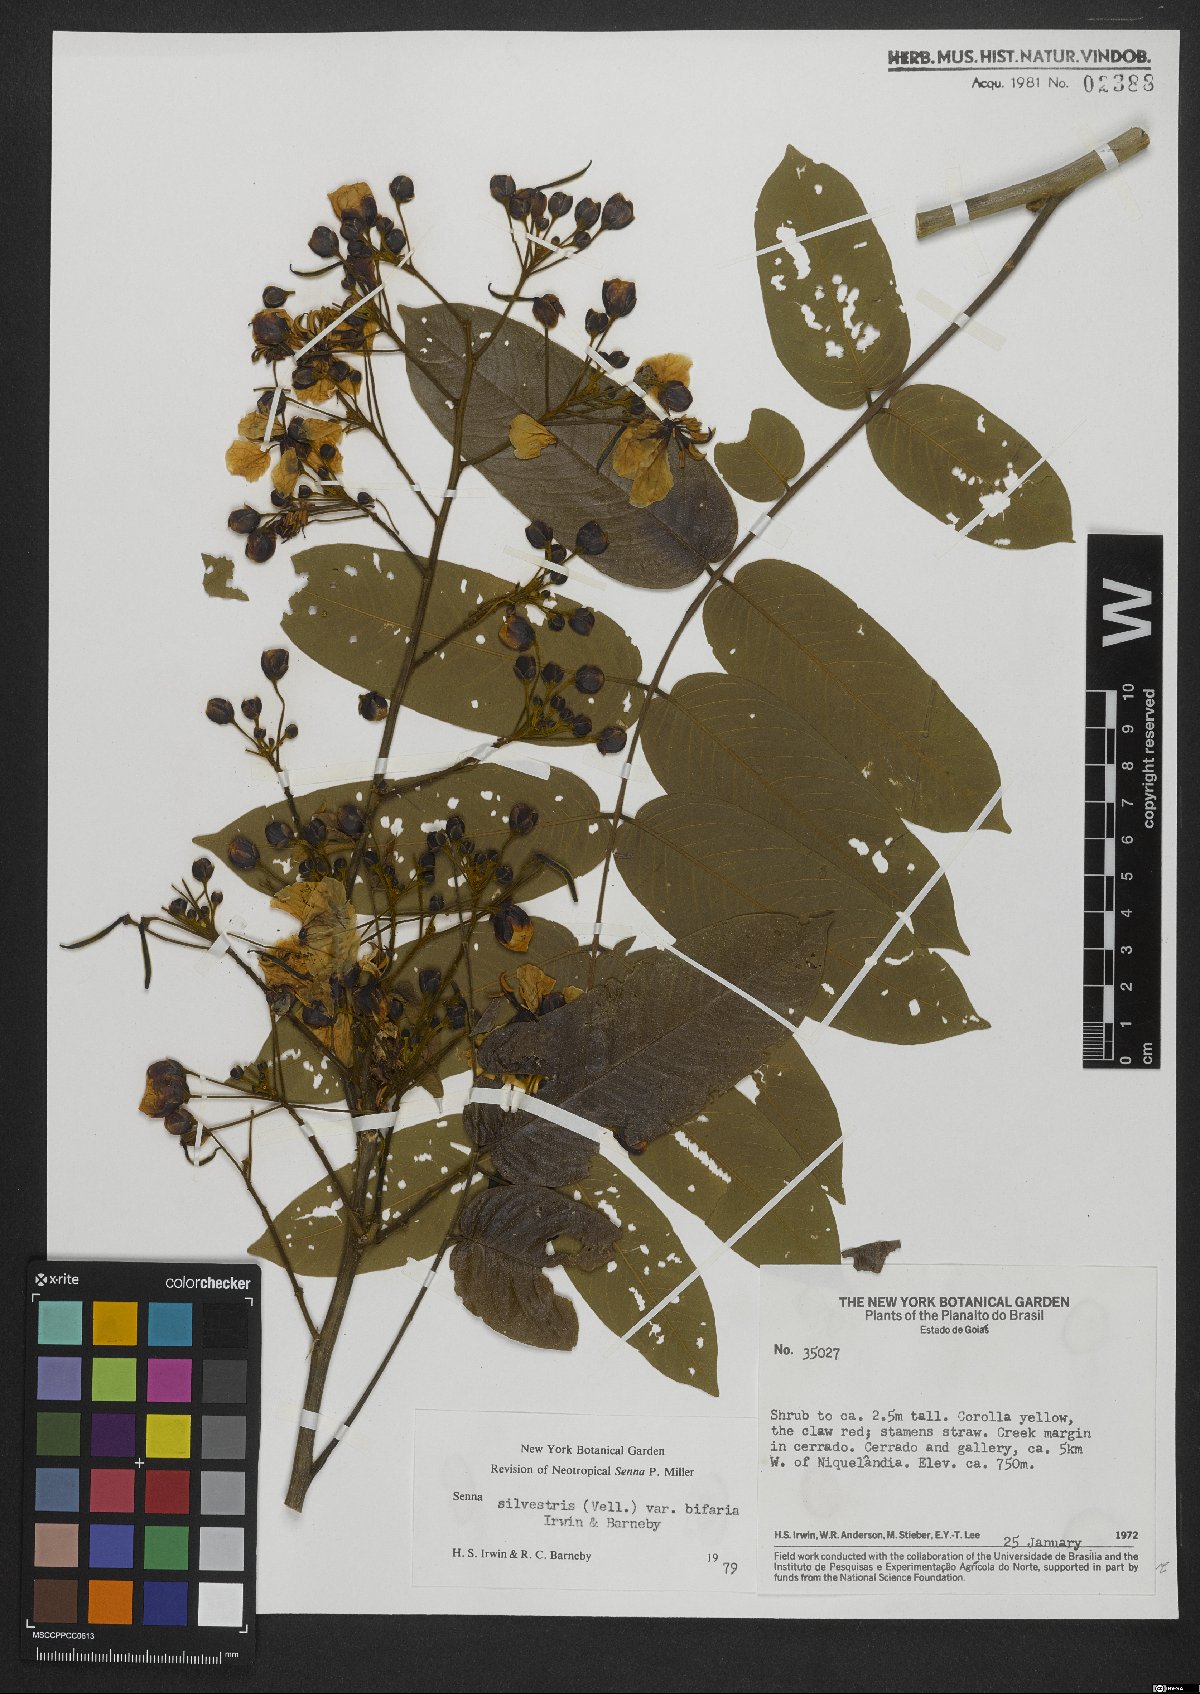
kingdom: Plantae
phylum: Tracheophyta
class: Magnoliopsida
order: Fabales
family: Fabaceae
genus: Senna
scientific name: Senna silvestris
